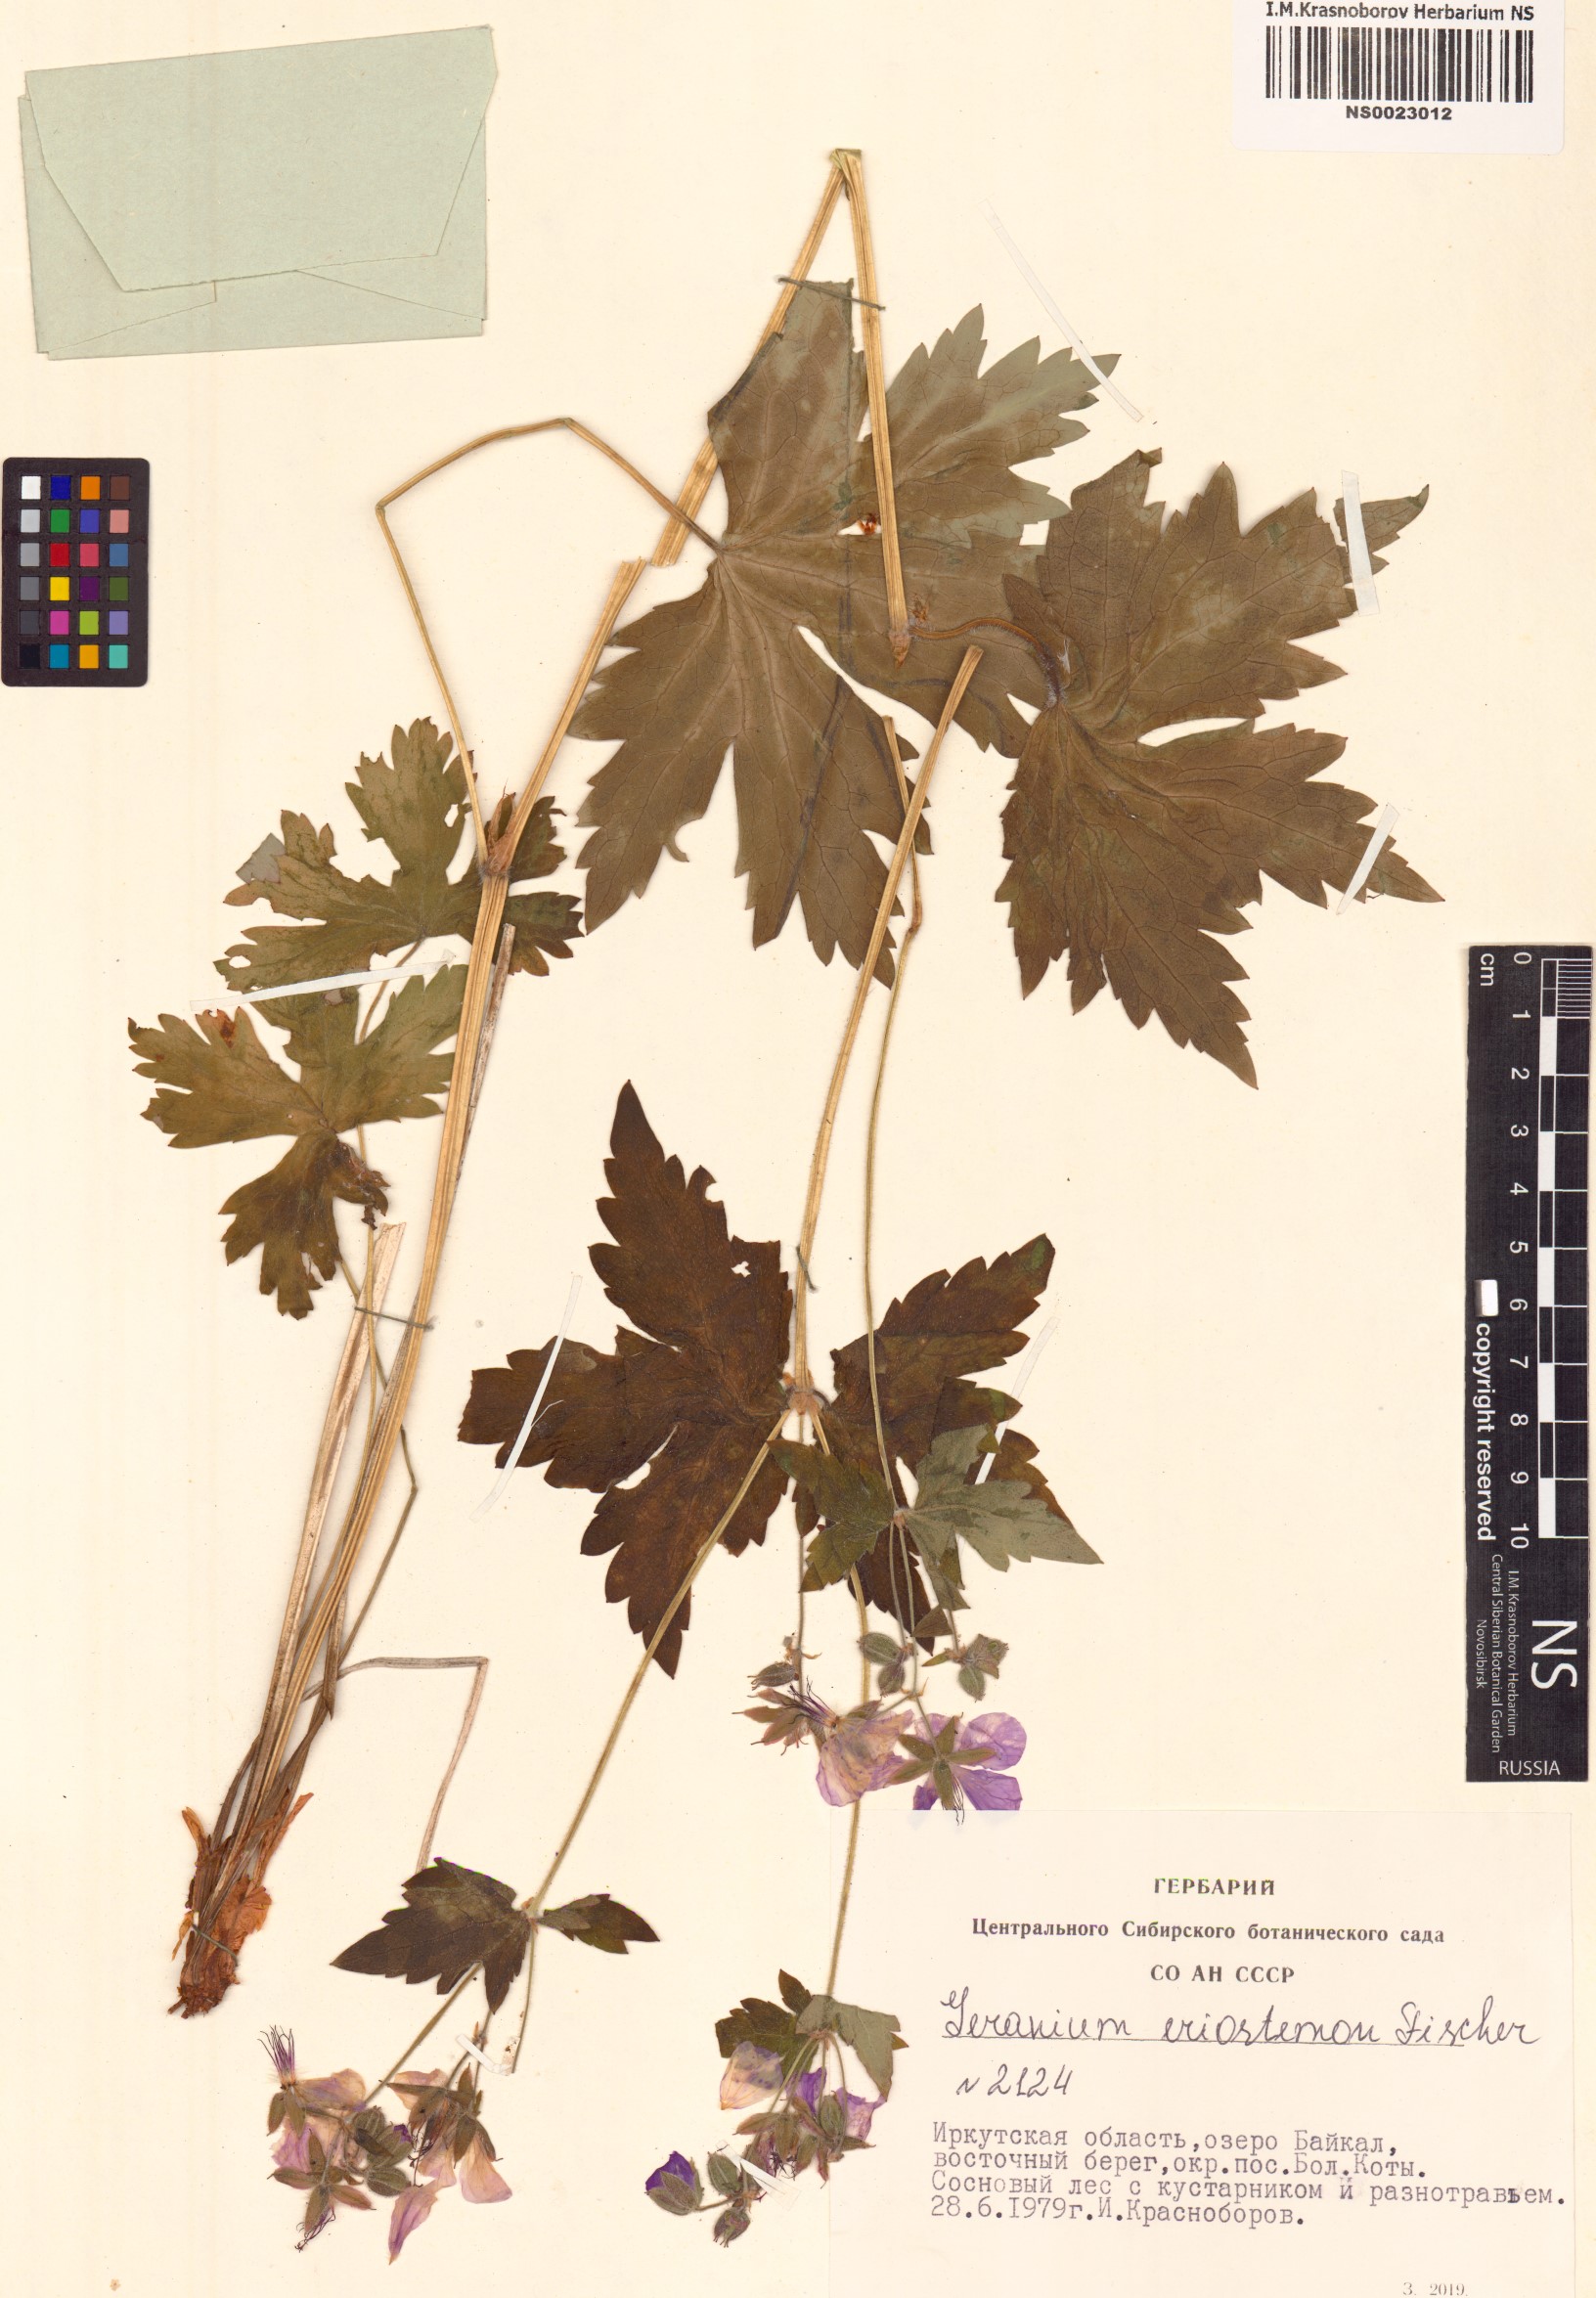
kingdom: Plantae
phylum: Tracheophyta
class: Magnoliopsida
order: Geraniales
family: Geraniaceae
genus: Geranium
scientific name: Geranium platyanthum
